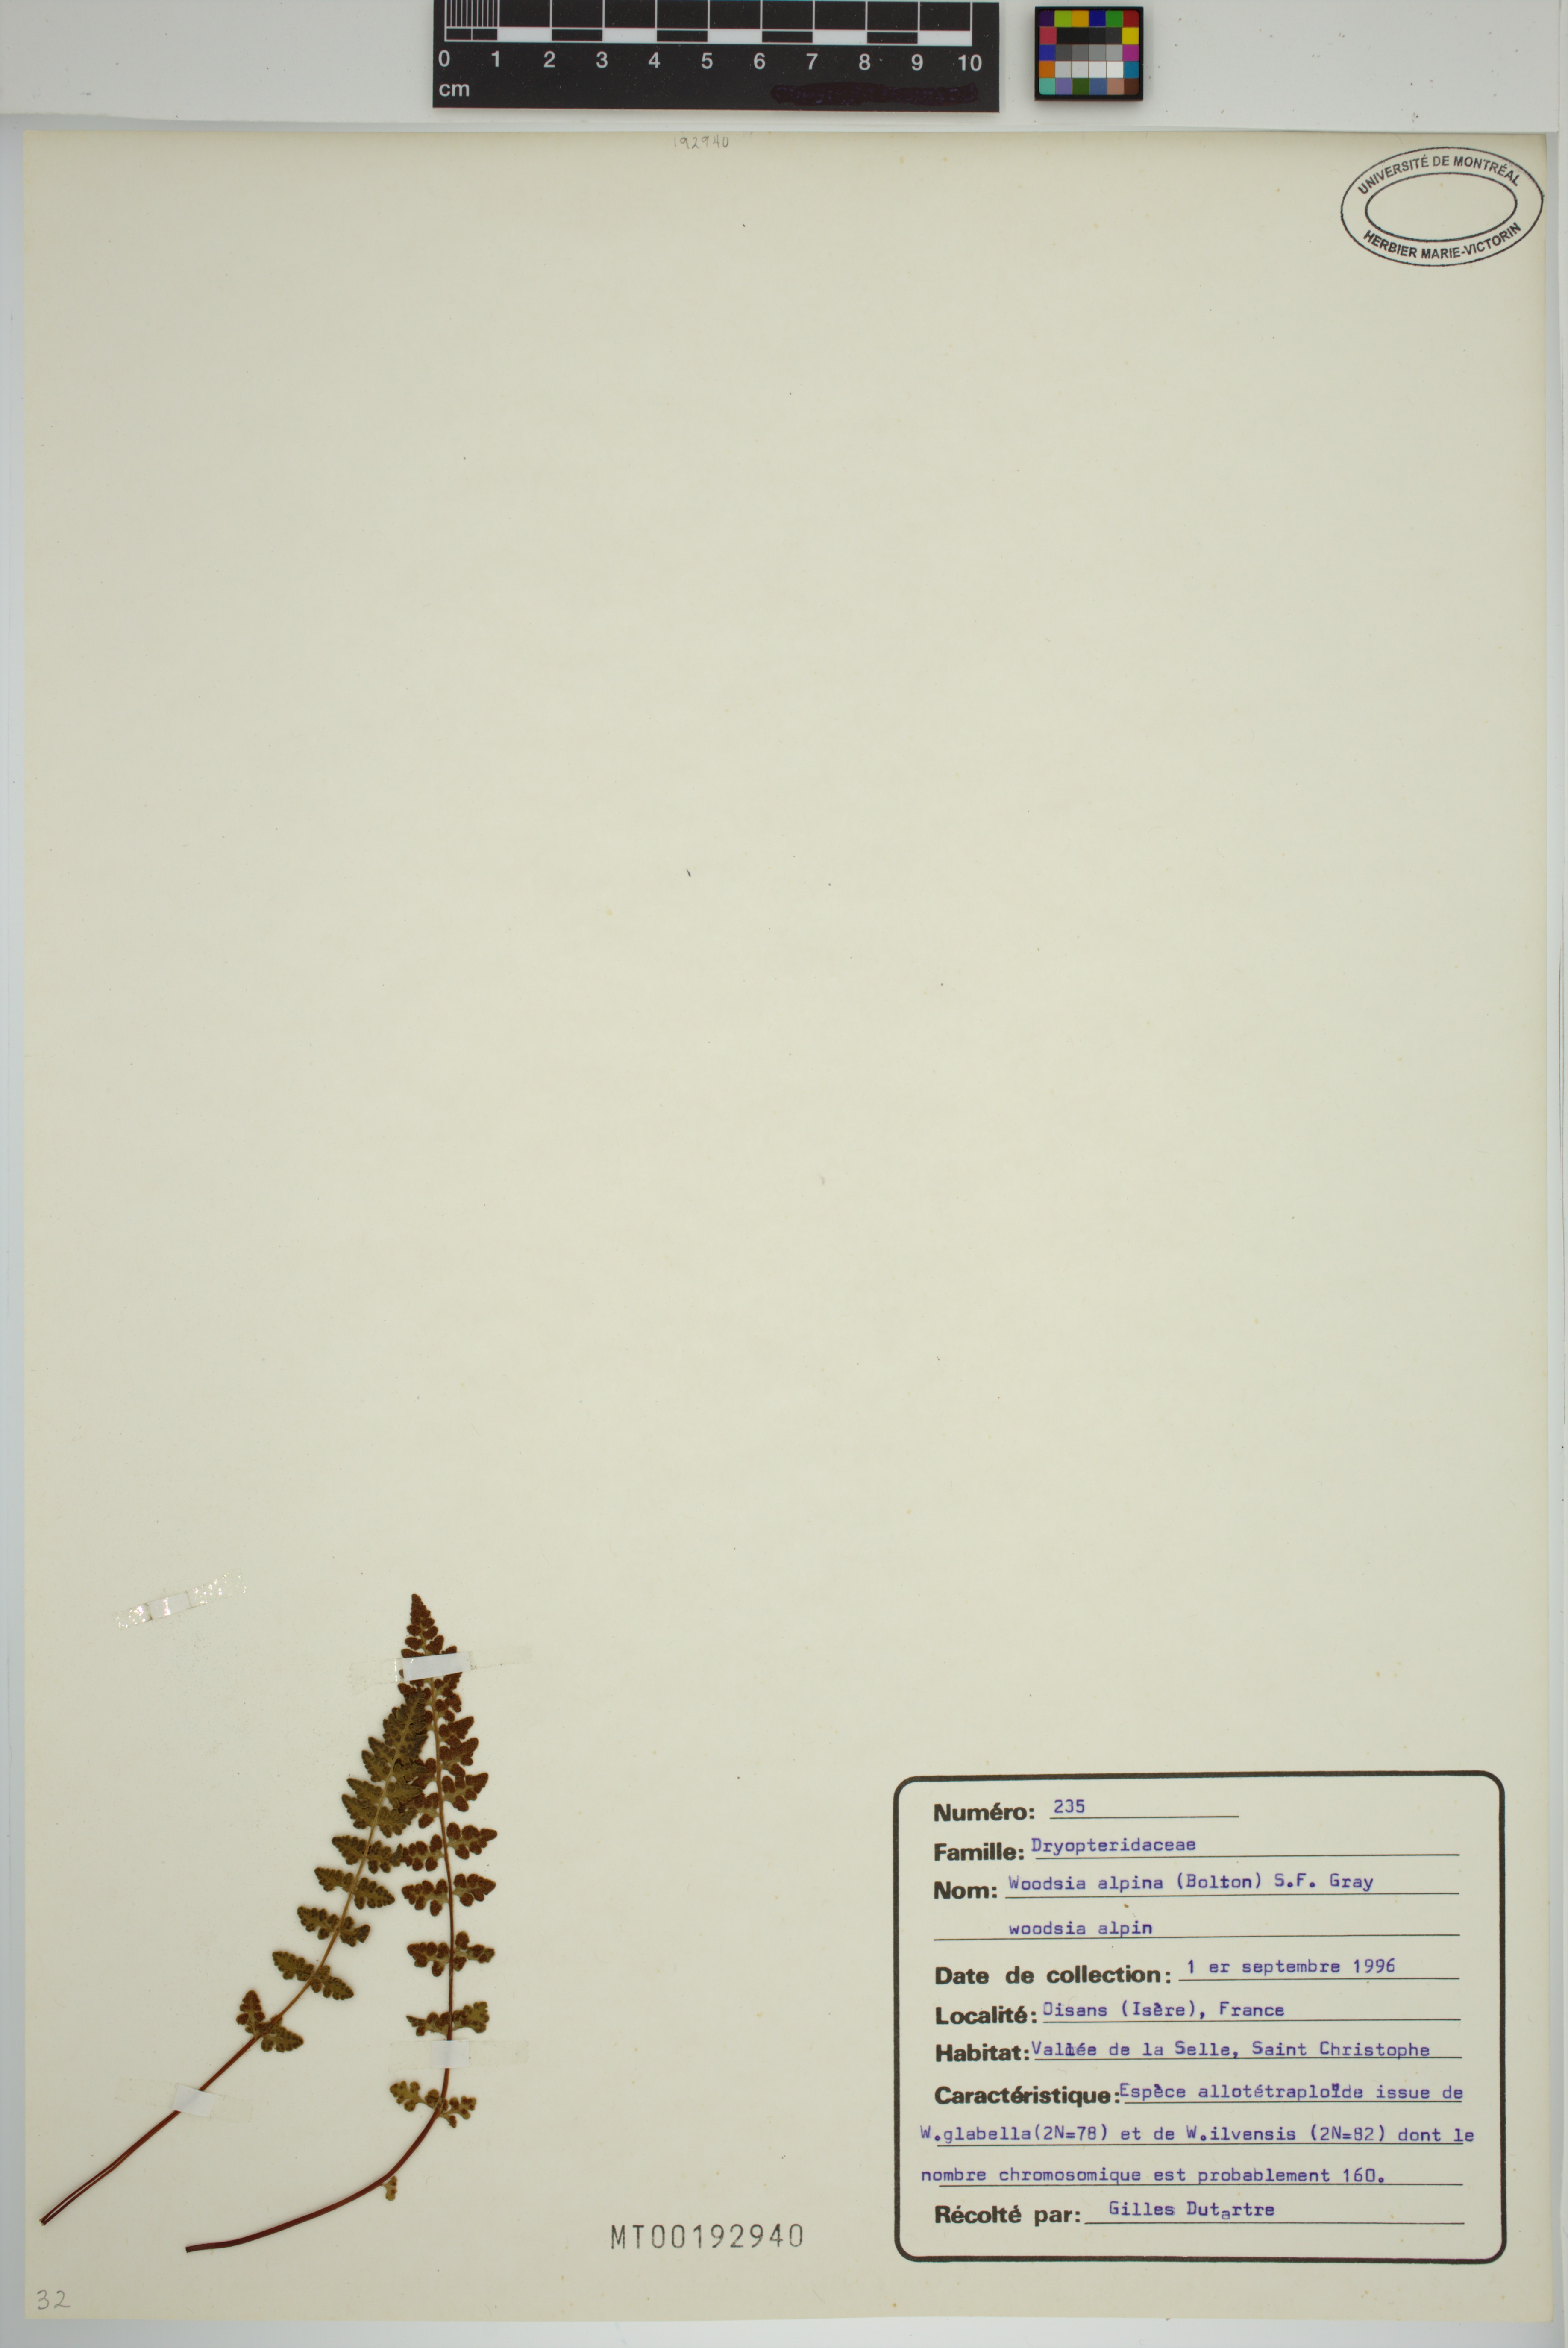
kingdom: Plantae
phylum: Tracheophyta
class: Polypodiopsida
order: Polypodiales
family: Woodsiaceae
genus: Woodsia
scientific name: Woodsia alpina
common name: Alpine woodsia
